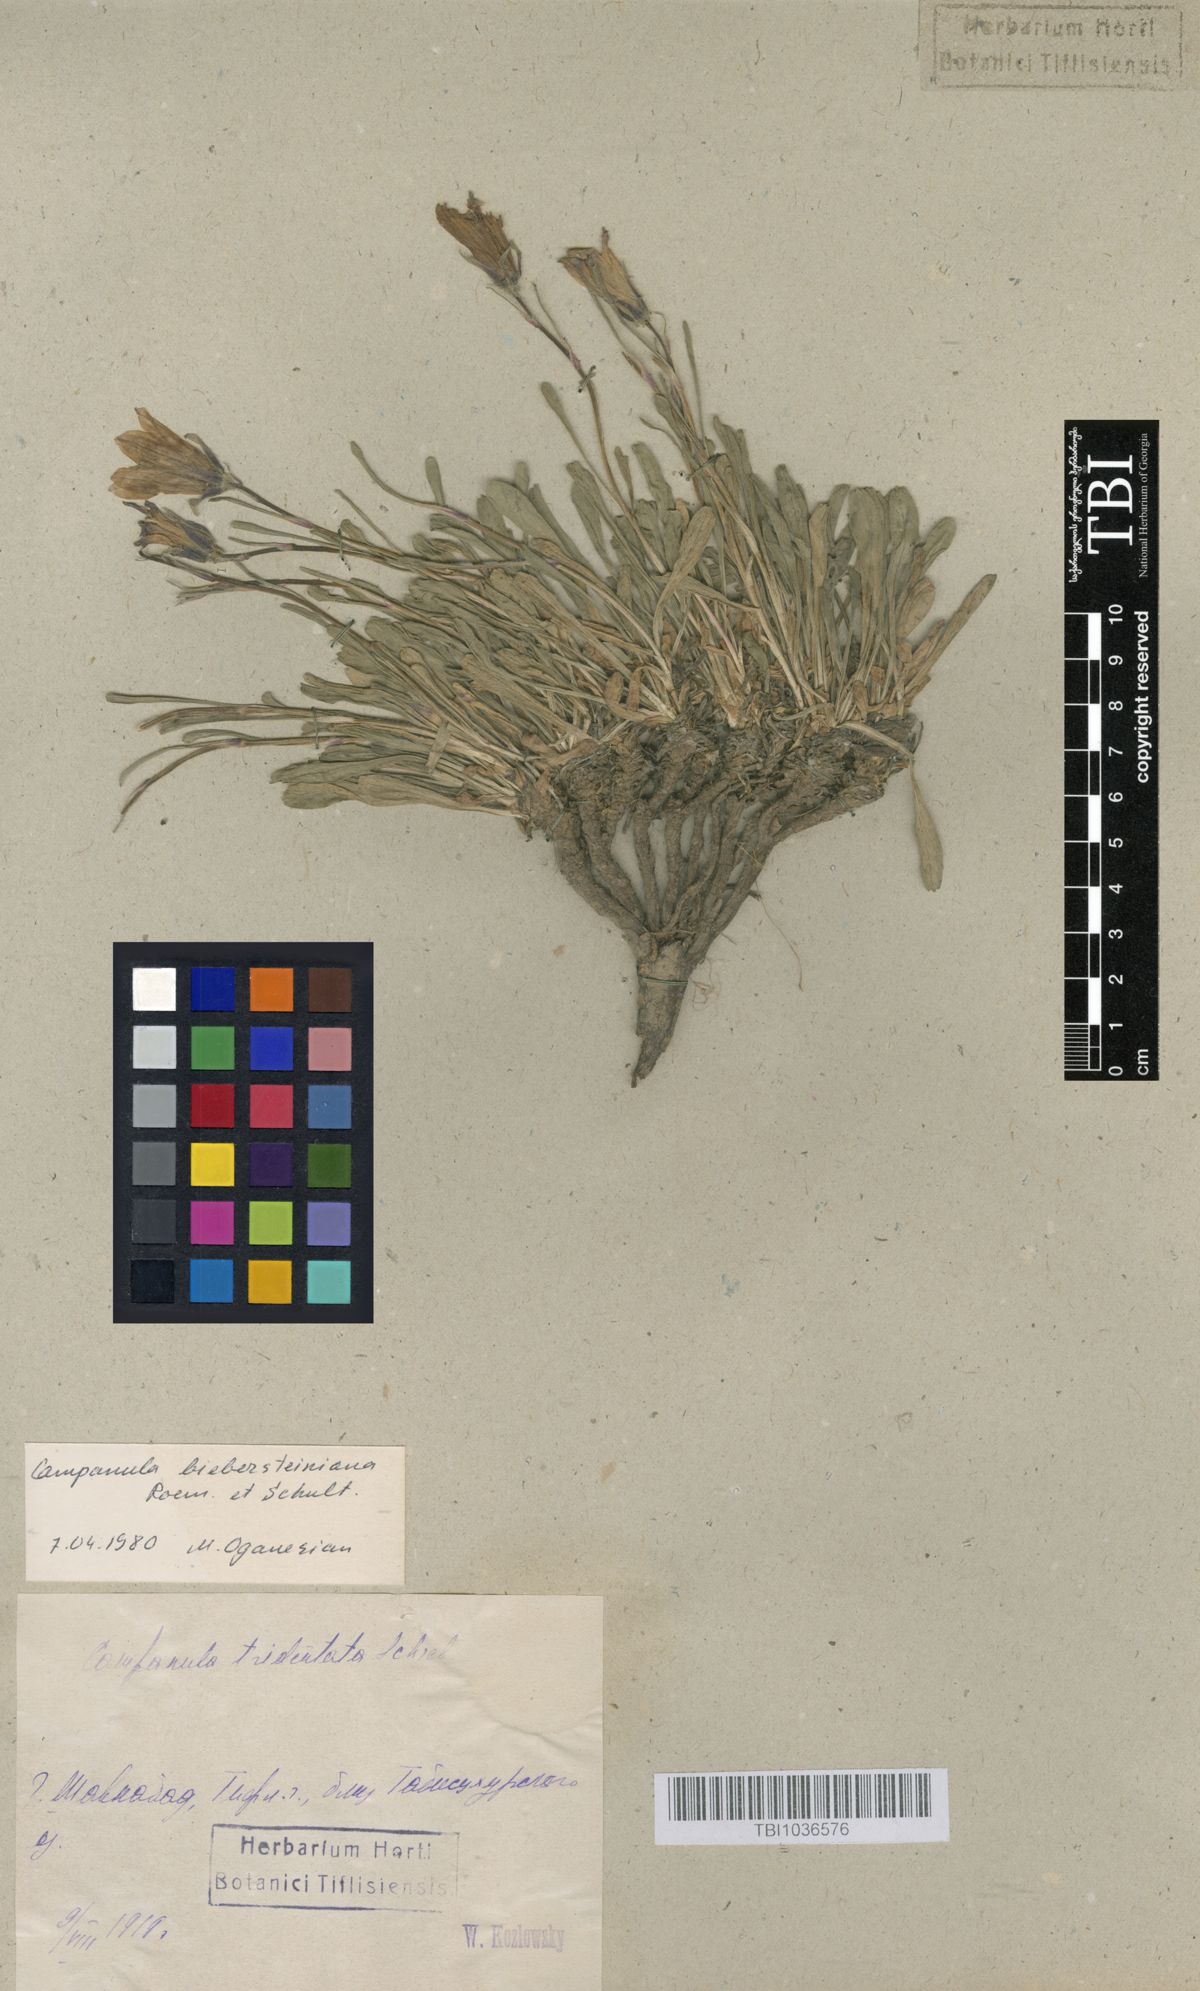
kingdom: Plantae
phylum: Tracheophyta
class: Magnoliopsida
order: Asterales
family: Campanulaceae
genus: Campanula
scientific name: Campanula tridentata
